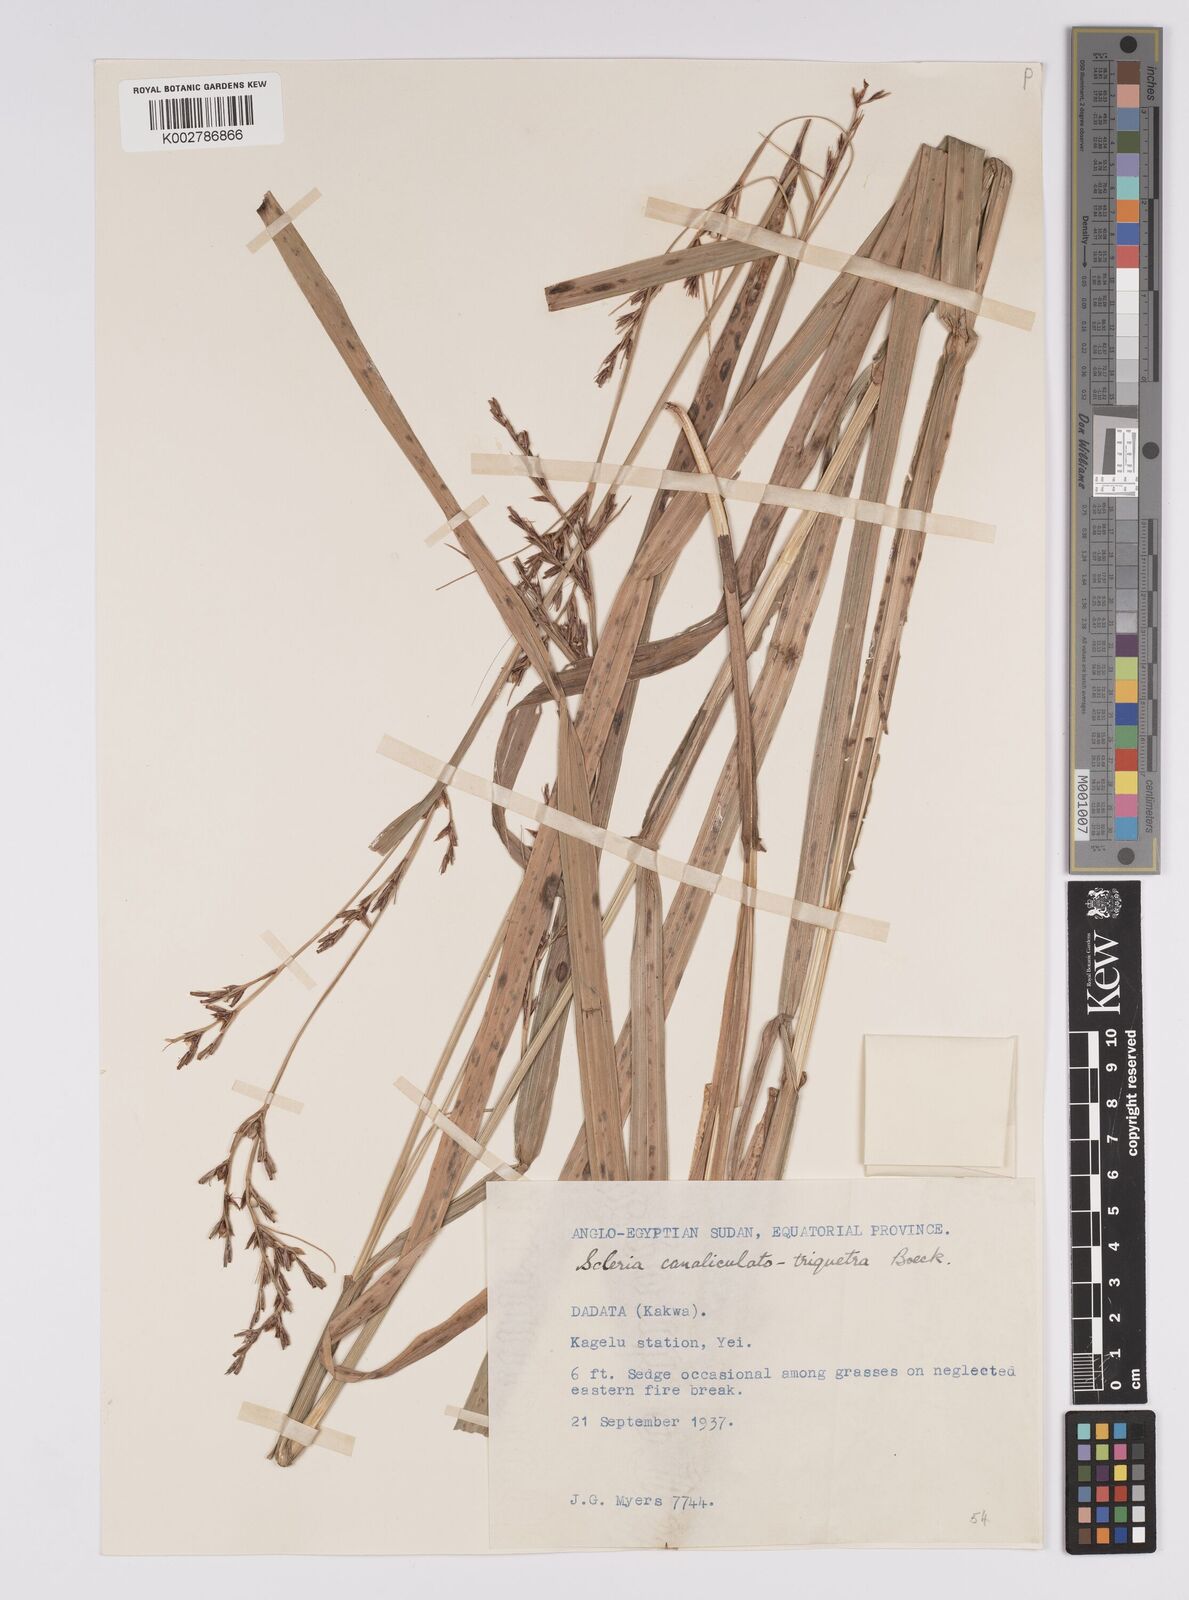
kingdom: Plantae
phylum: Tracheophyta
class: Liliopsida
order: Poales
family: Cyperaceae
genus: Scleria
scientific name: Scleria lagoensis
